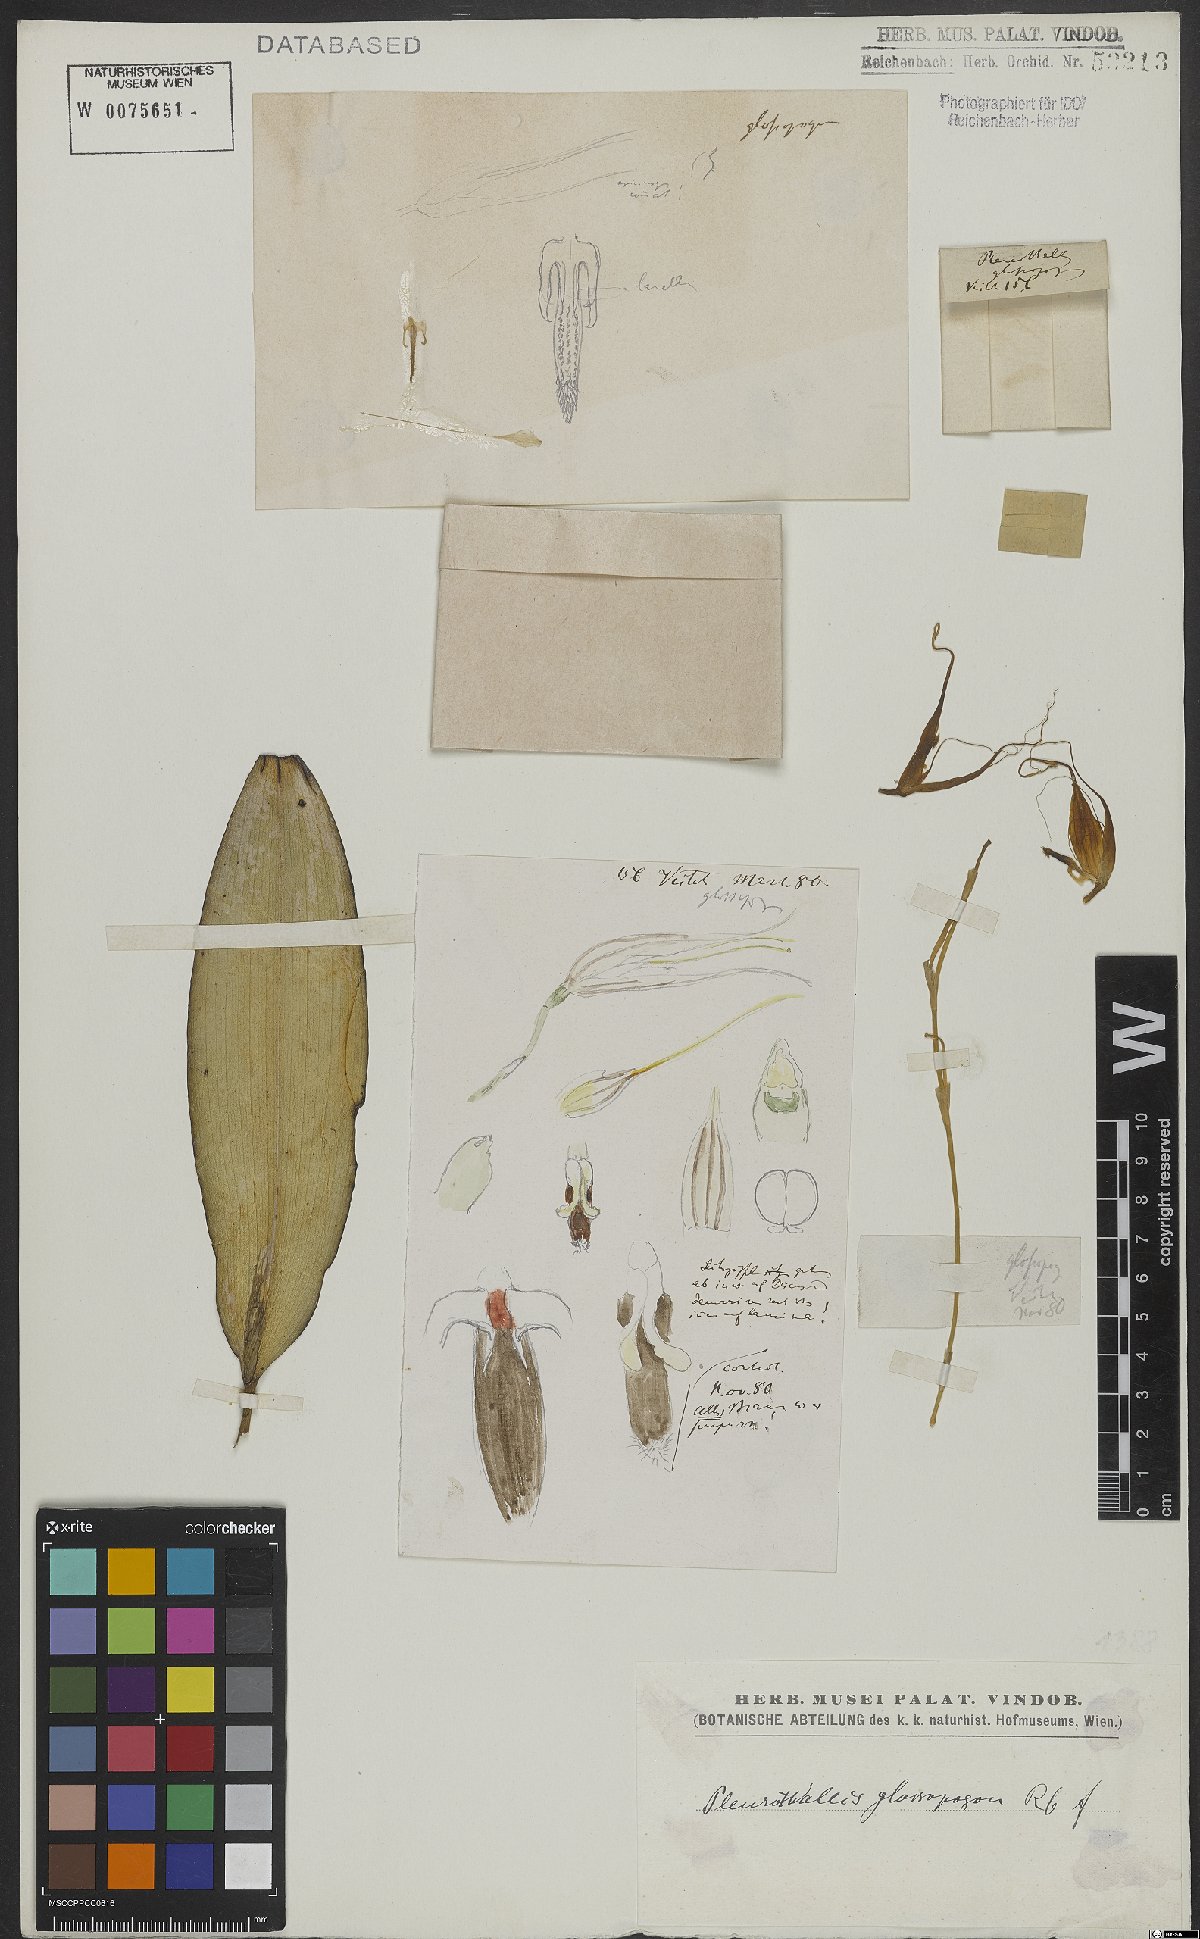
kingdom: Plantae
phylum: Tracheophyta
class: Liliopsida
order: Asparagales
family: Orchidaceae
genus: Pleurothallis
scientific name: Pleurothallis glossopogon
